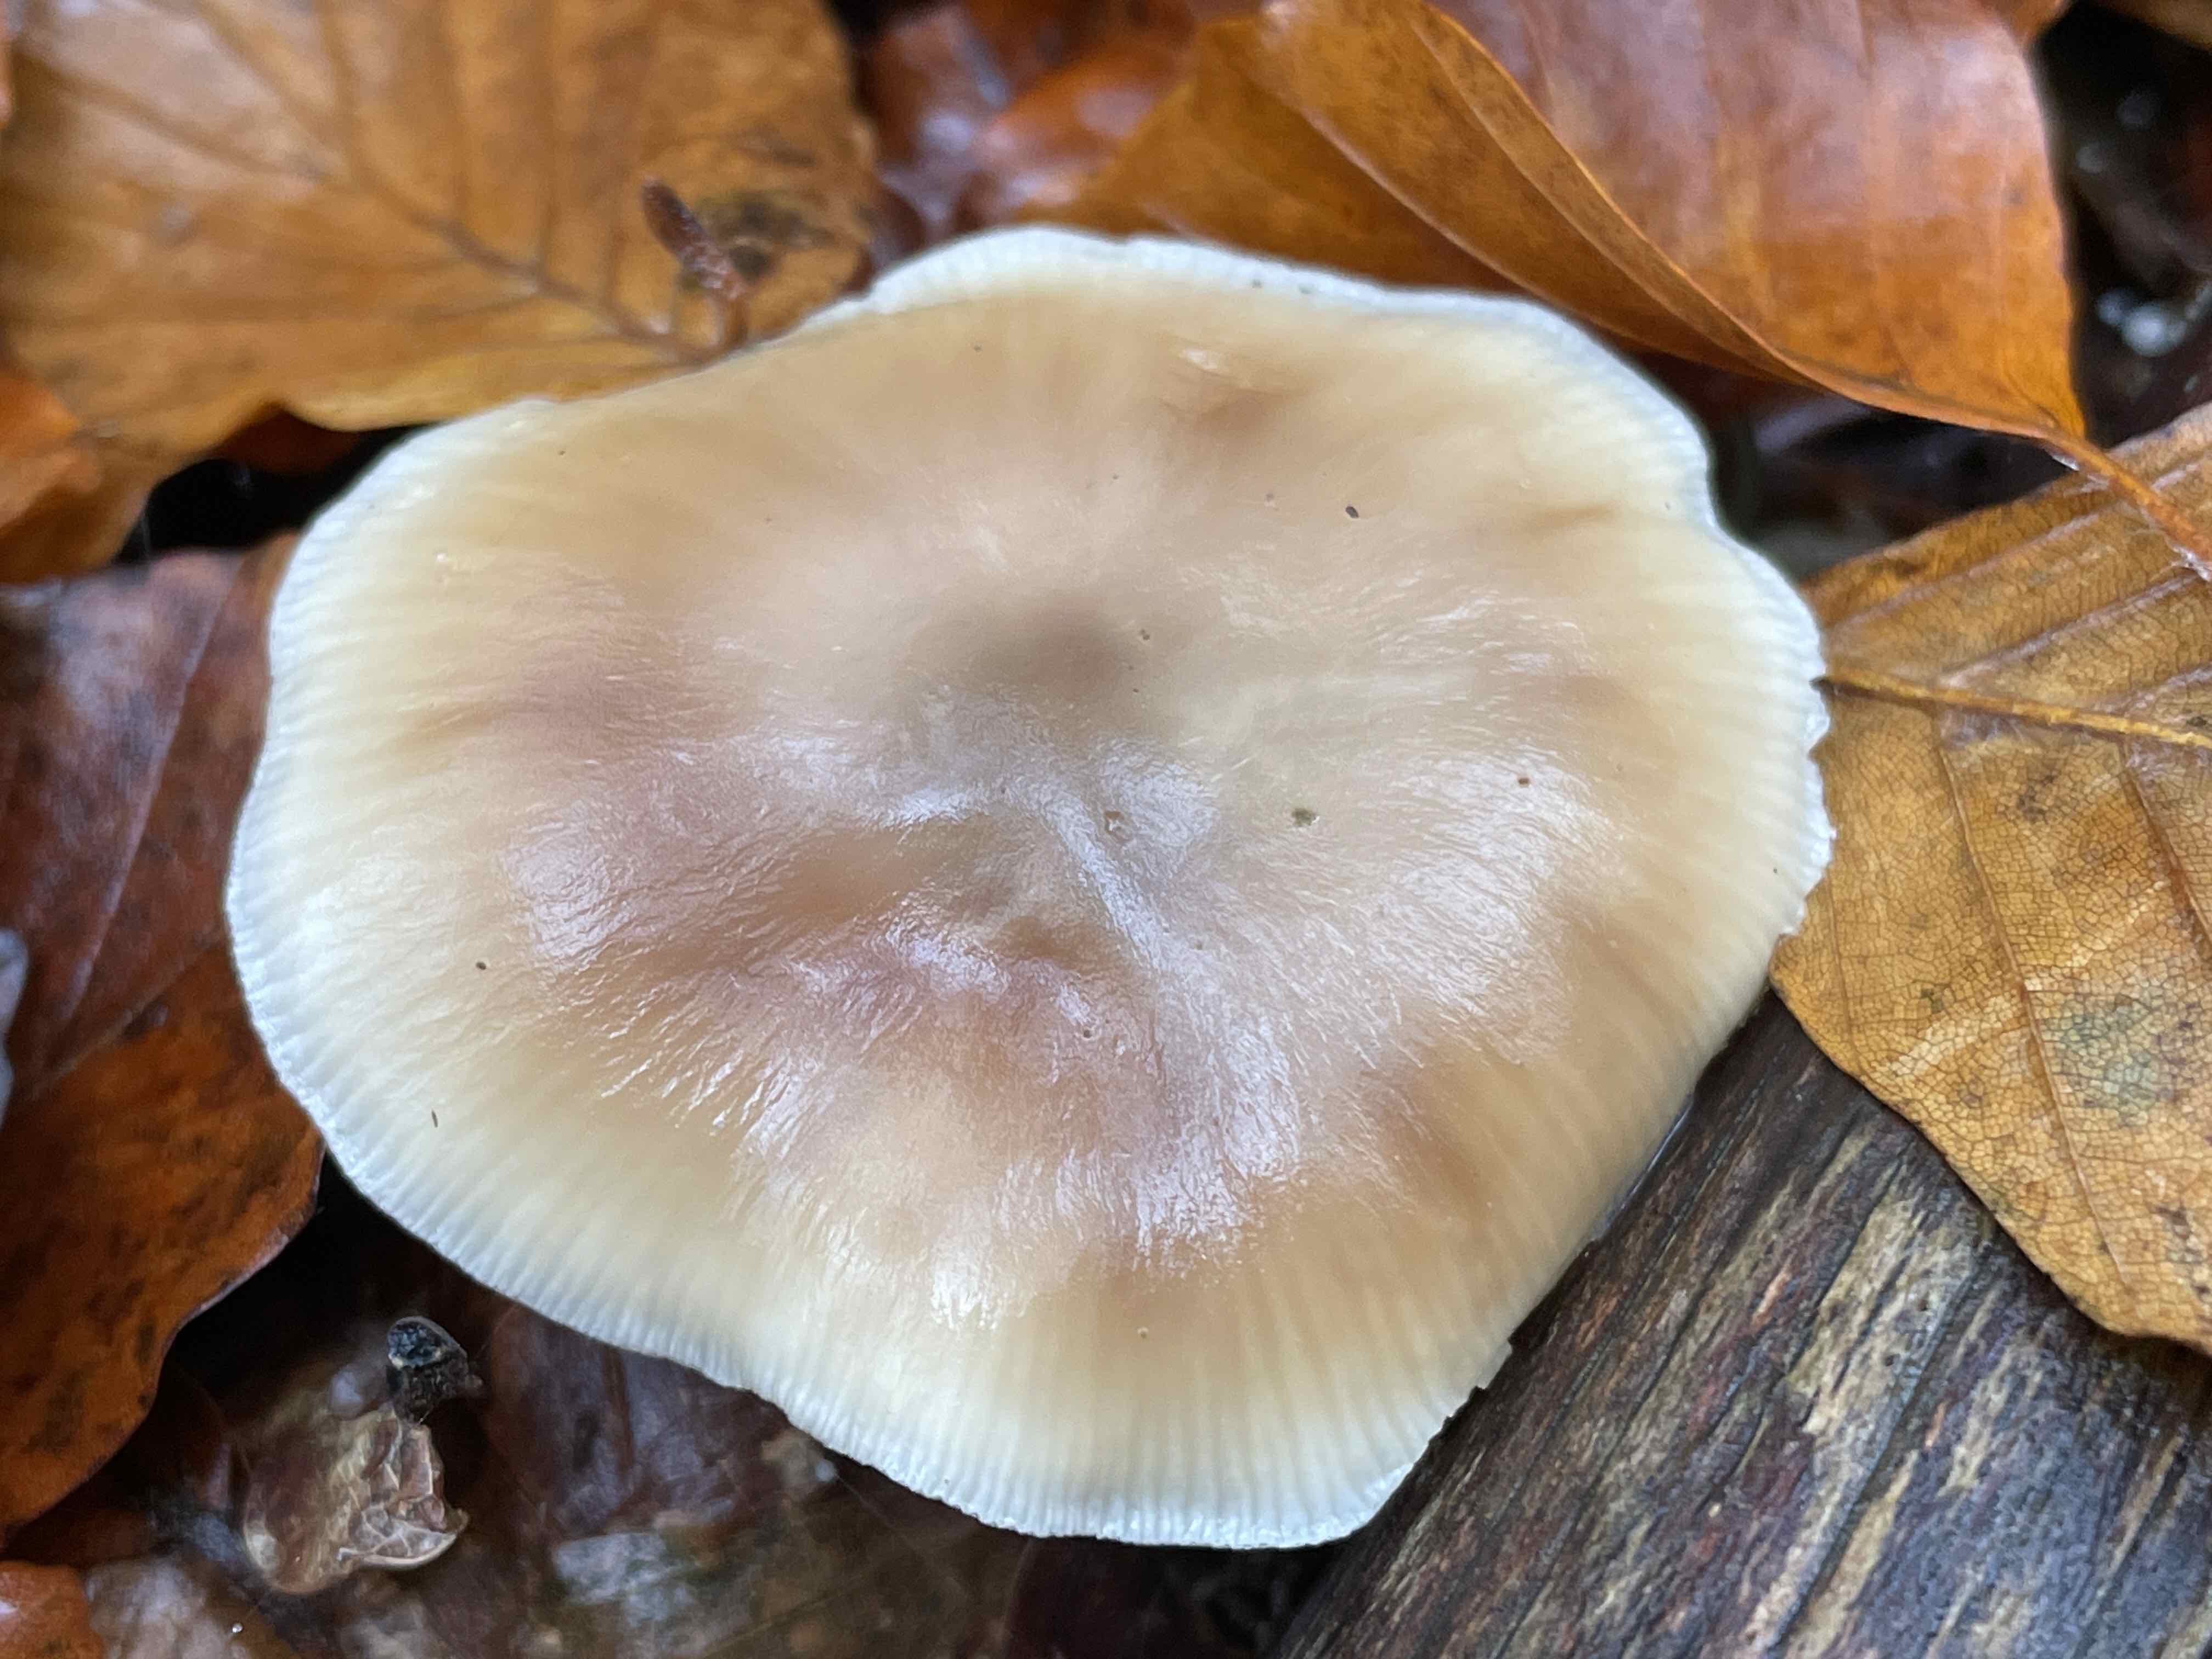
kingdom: Fungi
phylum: Basidiomycota
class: Agaricomycetes
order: Agaricales
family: Omphalotaceae
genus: Rhodocollybia
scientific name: Rhodocollybia asema
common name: horngrå fladhat
